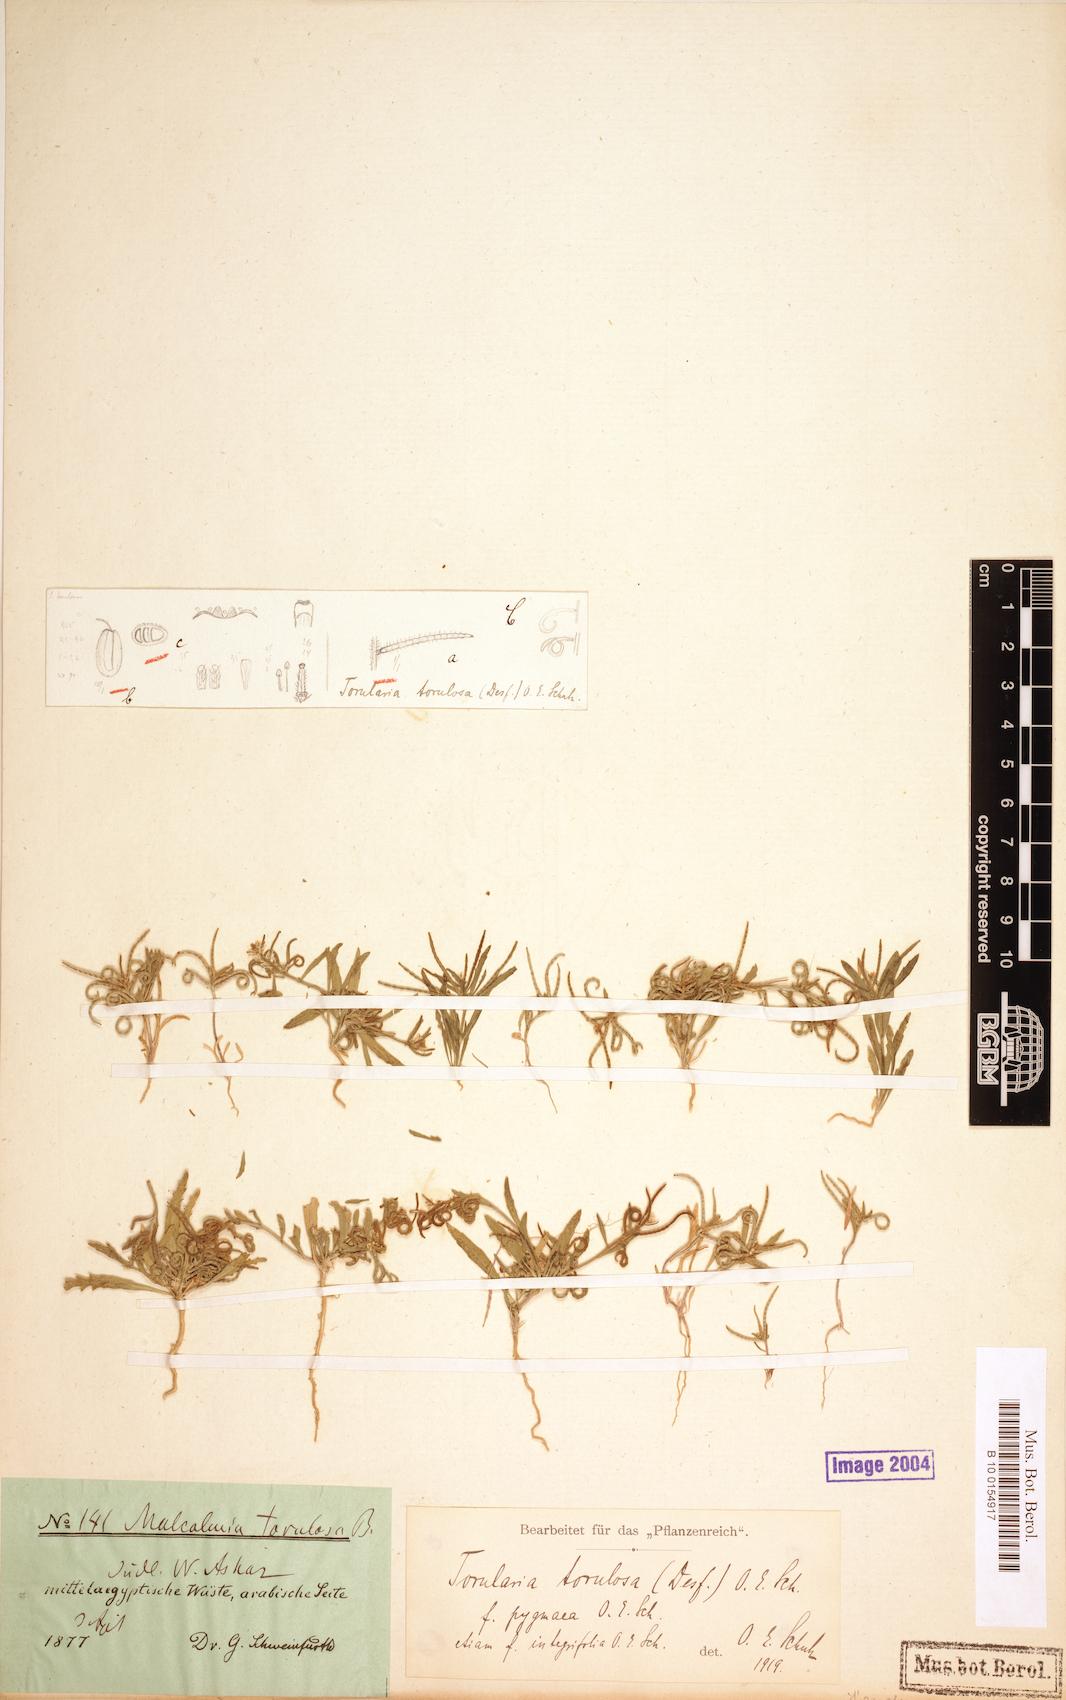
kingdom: Plantae
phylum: Tracheophyta
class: Magnoliopsida
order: Brassicales
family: Brassicaceae
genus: Neotorularia
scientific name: Neotorularia torulosa
